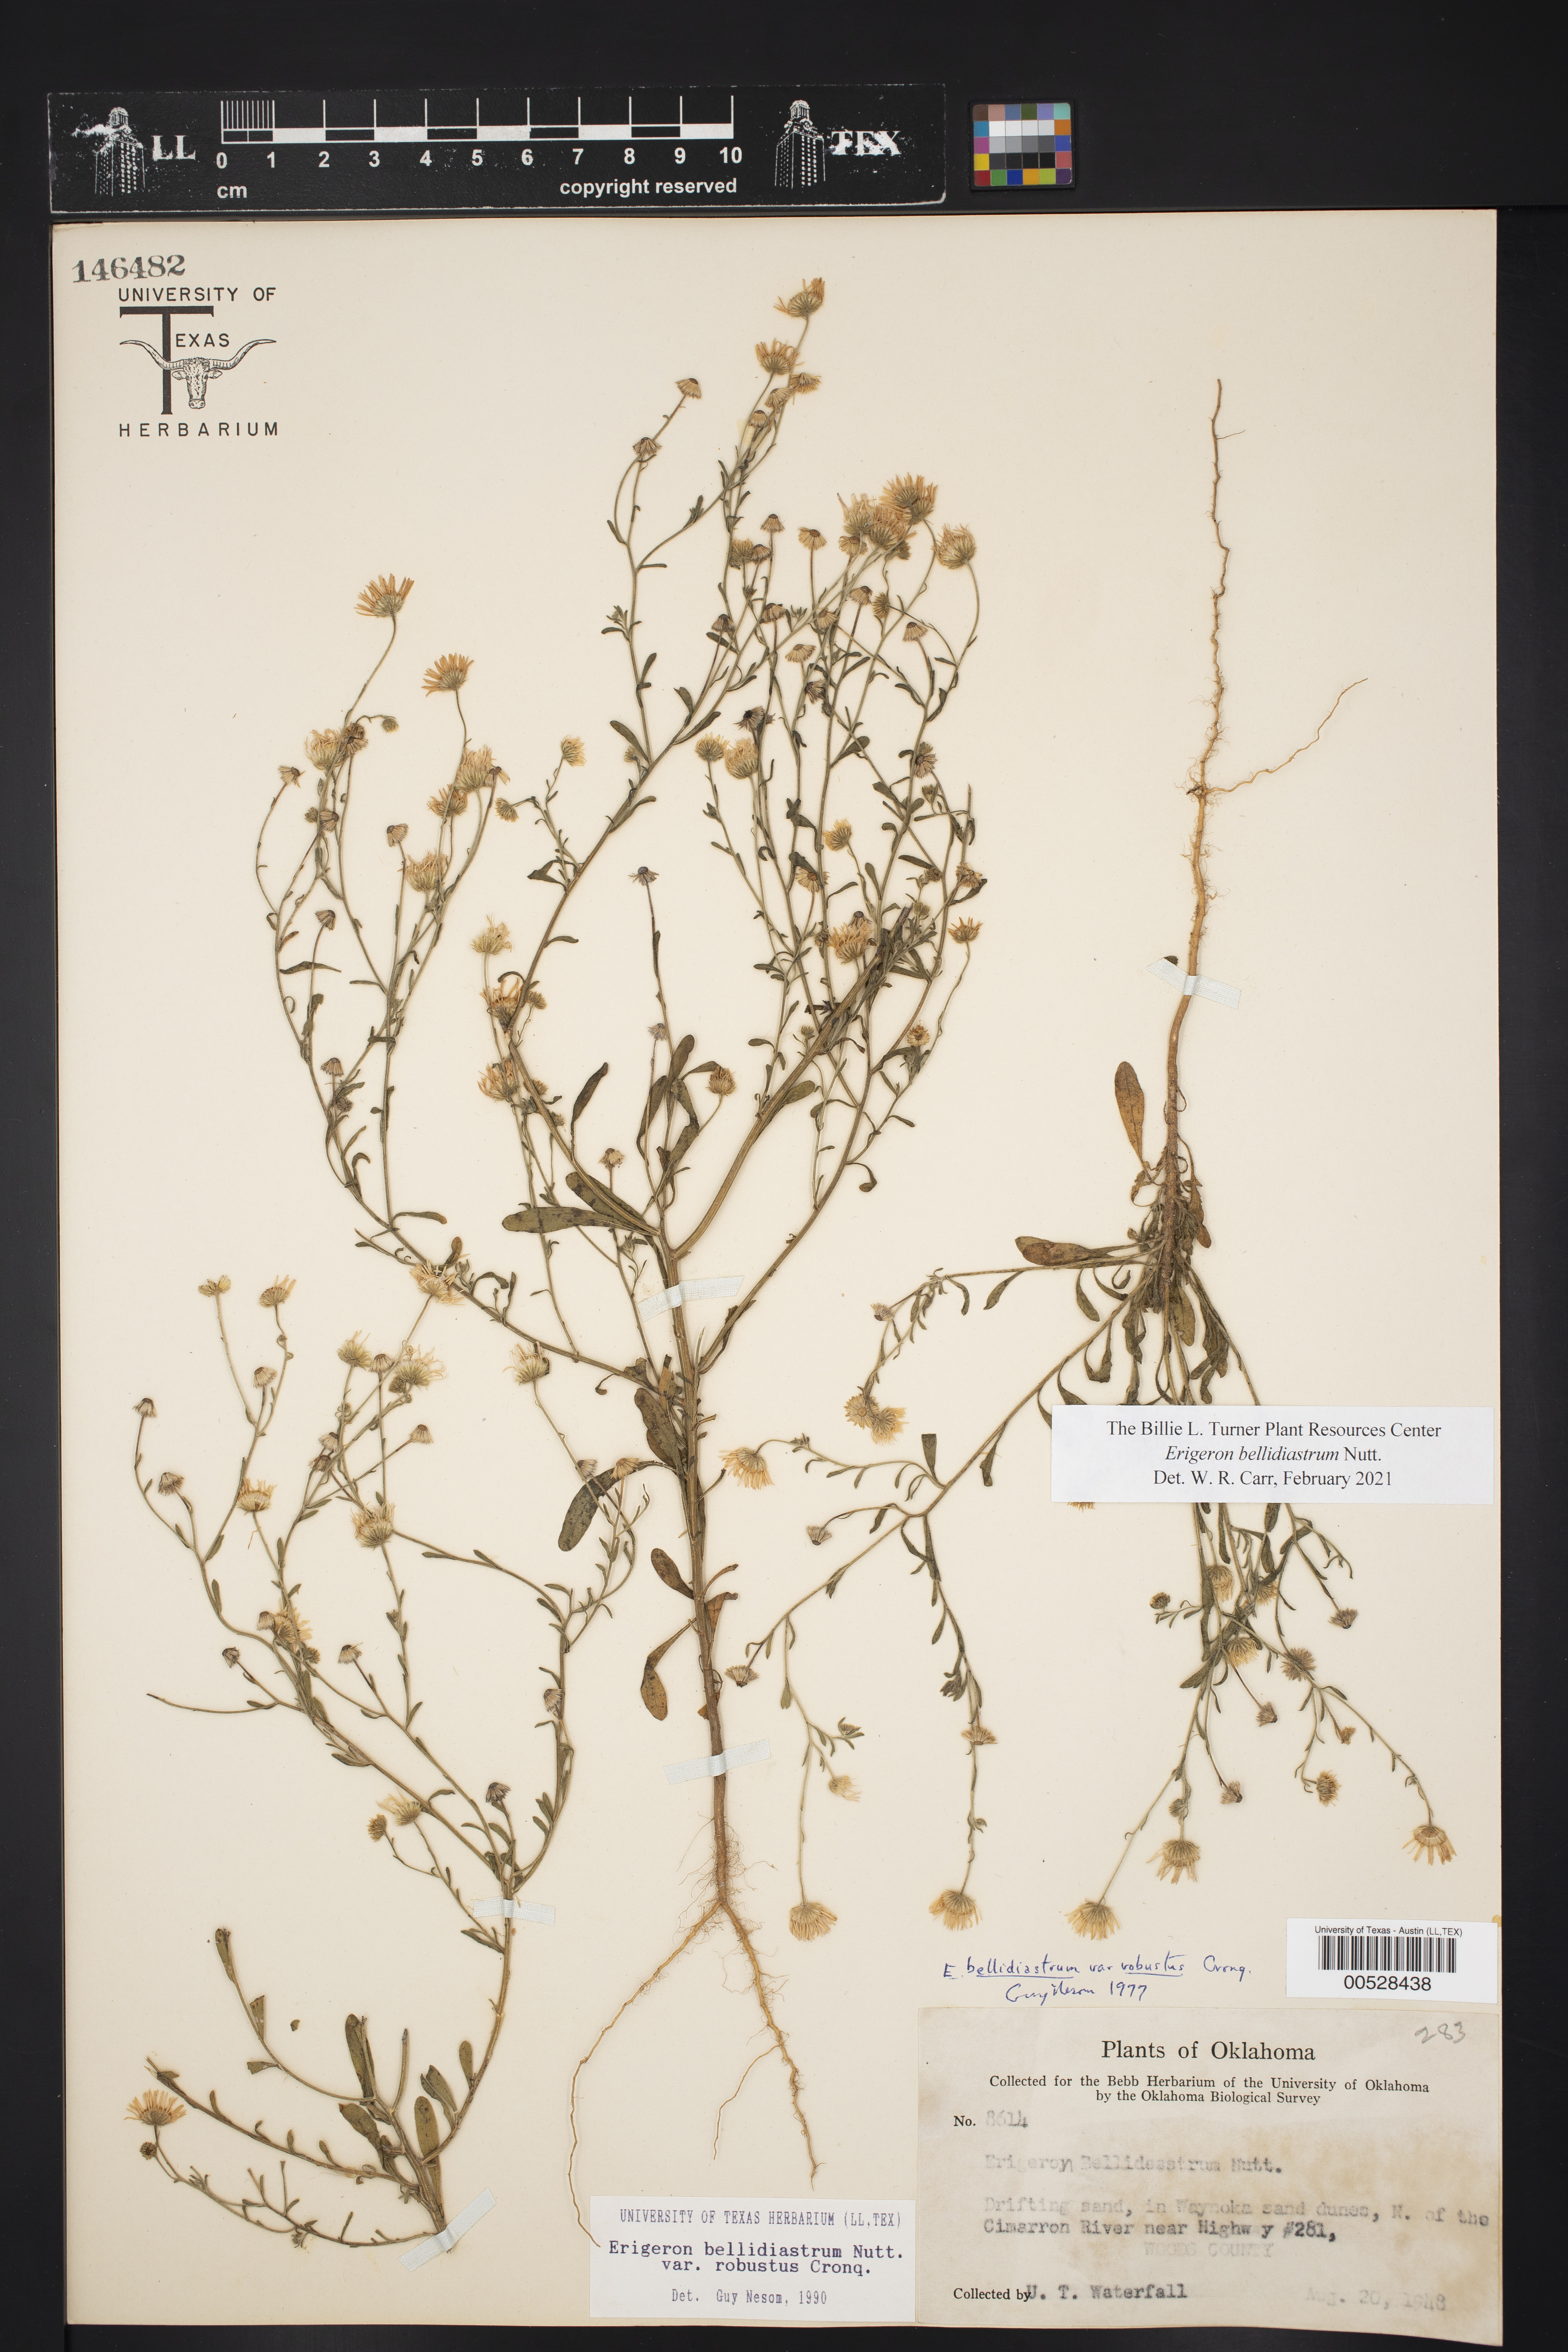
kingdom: Plantae
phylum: Tracheophyta
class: Magnoliopsida
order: Asterales
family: Asteraceae
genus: Erigeron
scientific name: Erigeron bellidiastrum
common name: Sand fleabane
